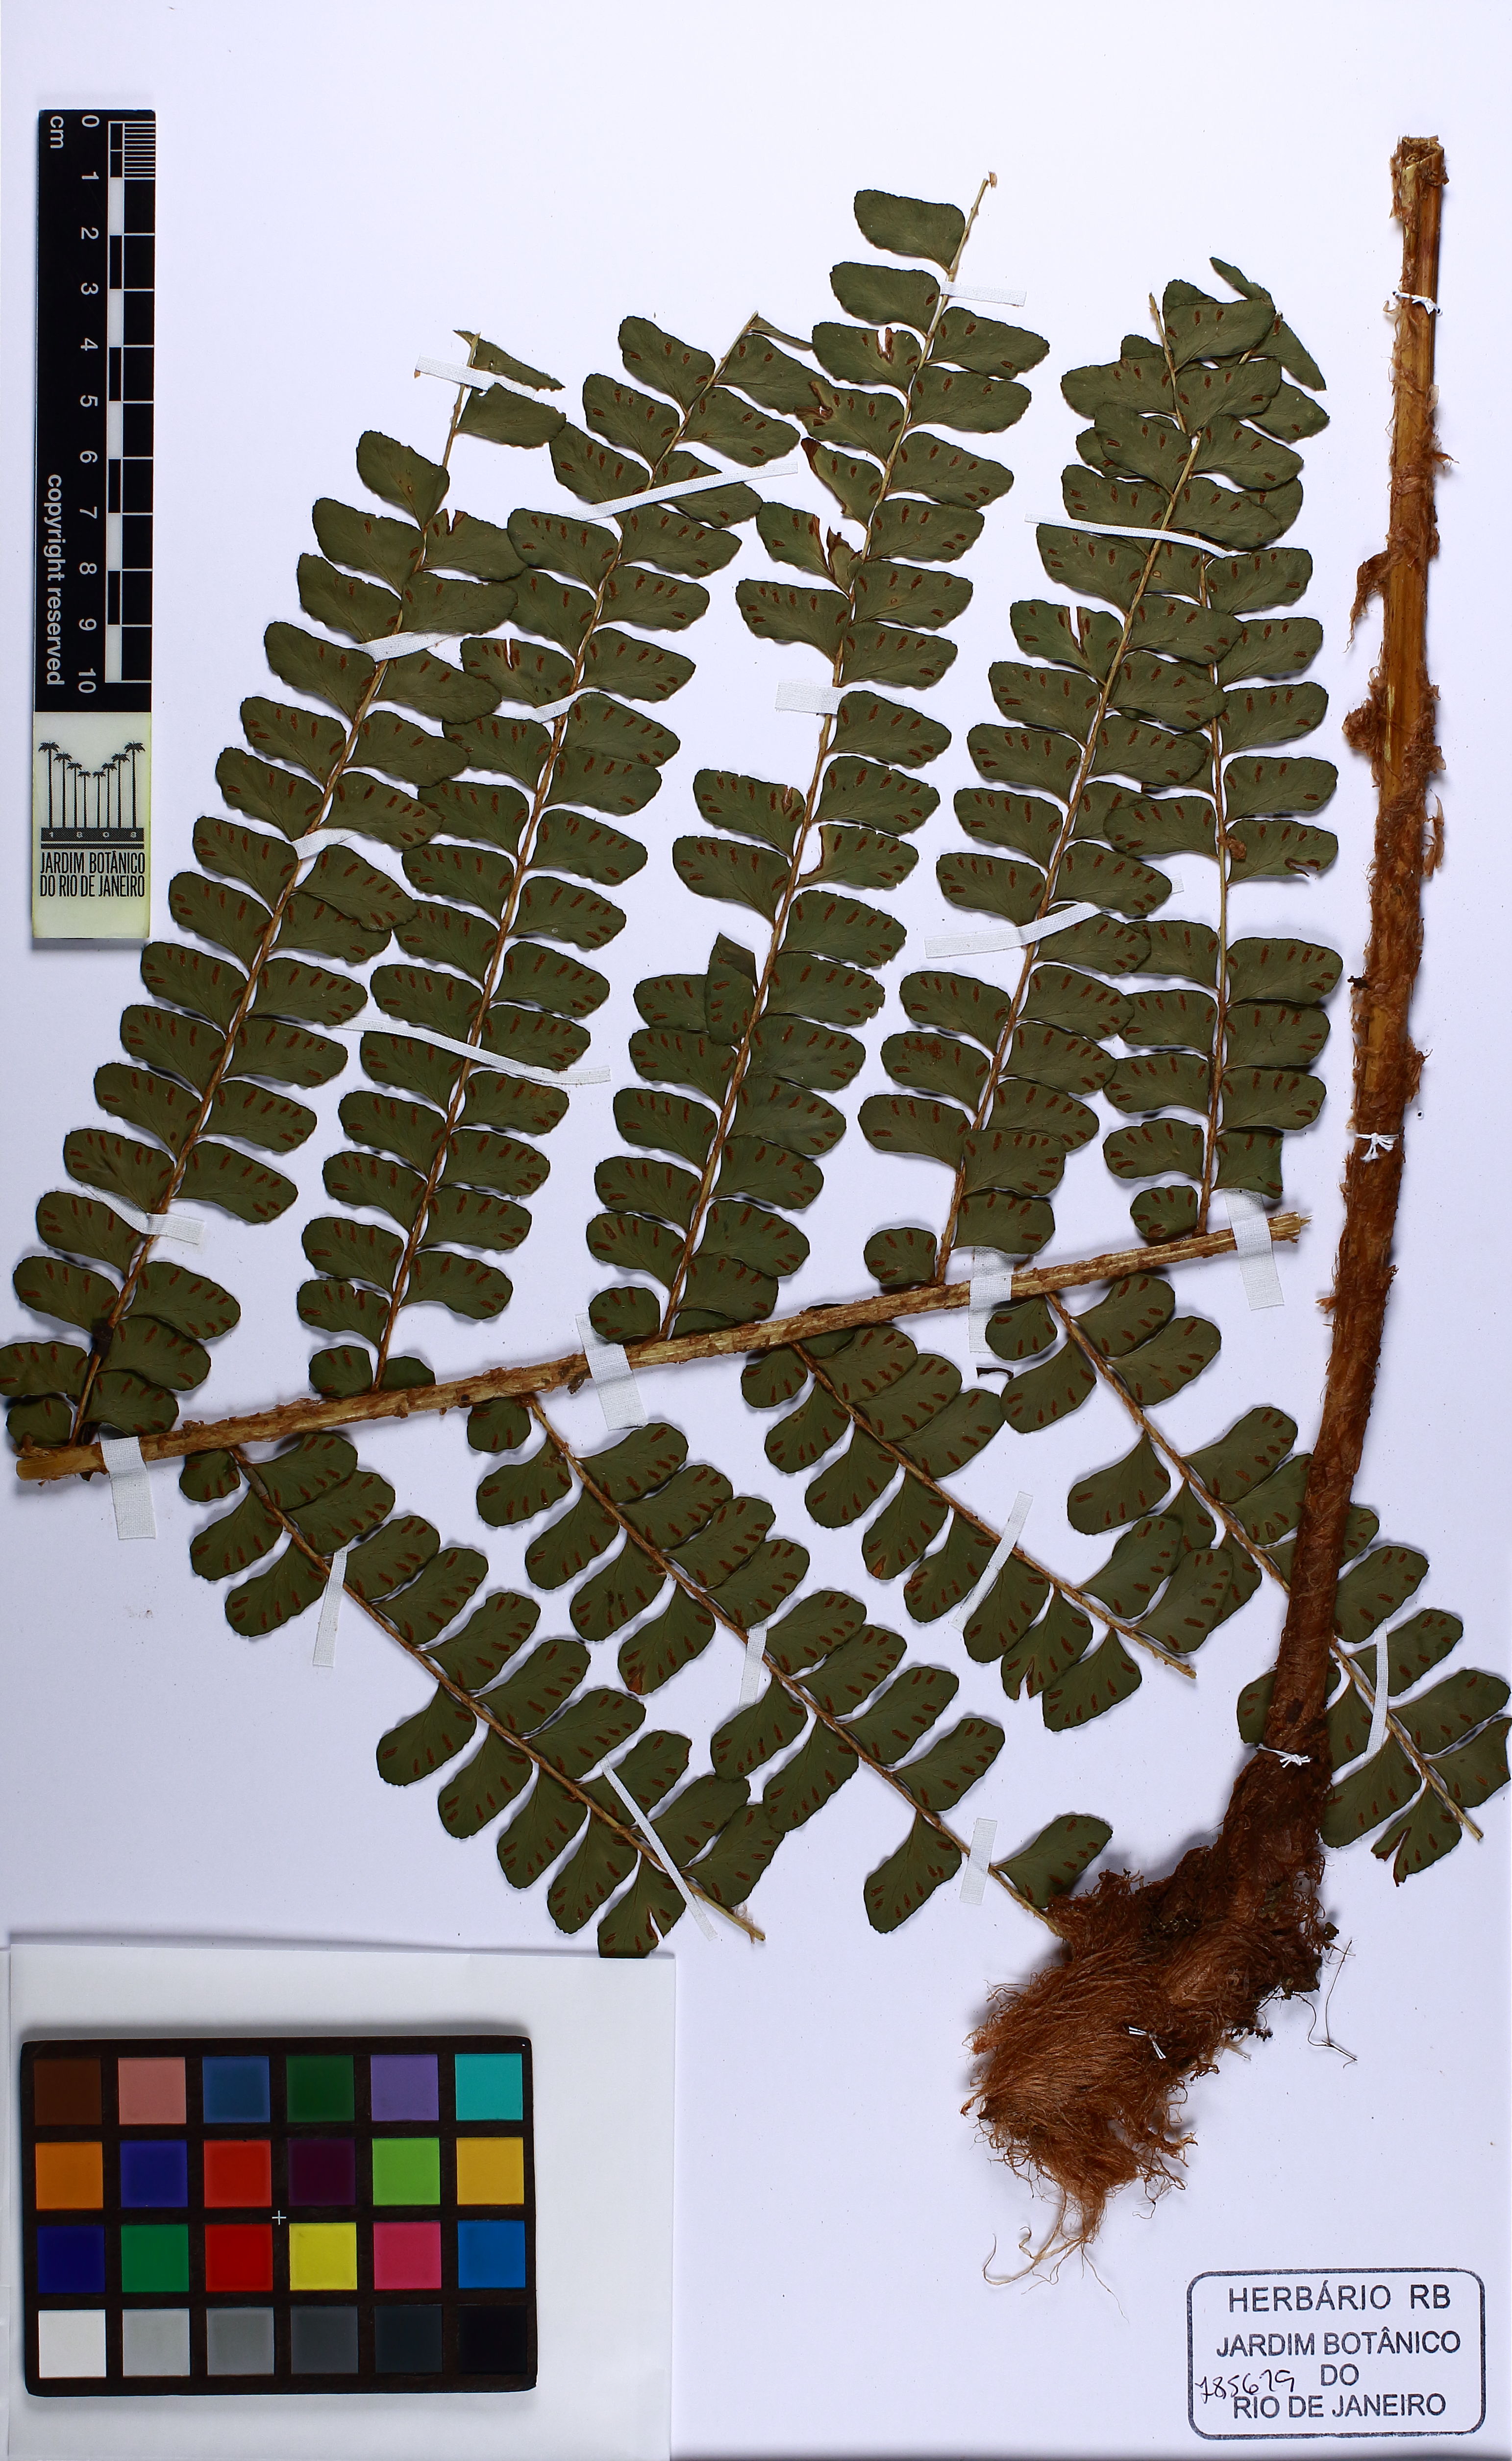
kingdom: Plantae
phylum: Tracheophyta
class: Polypodiopsida
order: Polypodiales
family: Didymochlaenaceae
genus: Didymochlaena
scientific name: Didymochlaena truncatula
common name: Mahogany fern
